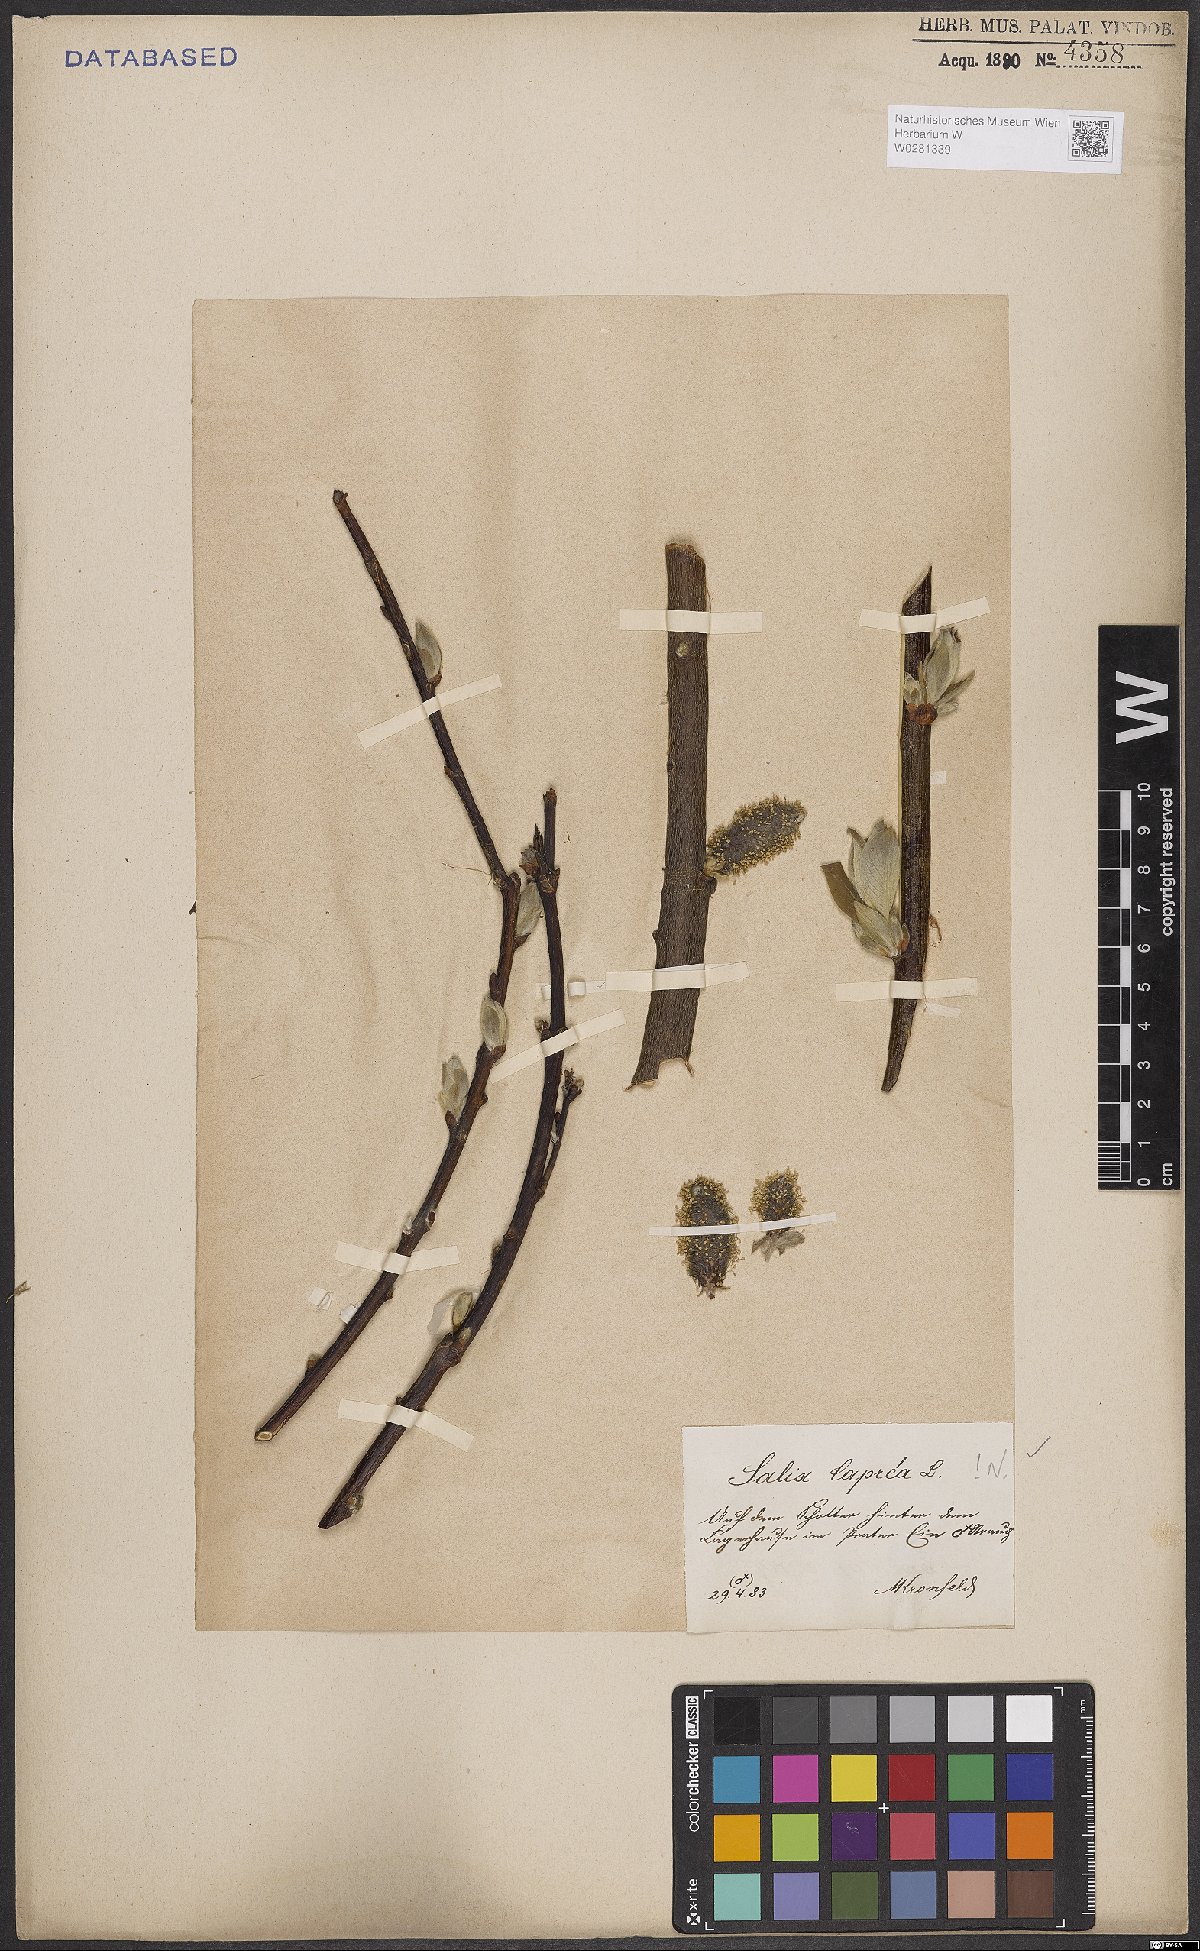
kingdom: Plantae
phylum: Tracheophyta
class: Magnoliopsida
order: Malpighiales
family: Salicaceae
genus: Salix
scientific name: Salix caprea
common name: Goat willow
